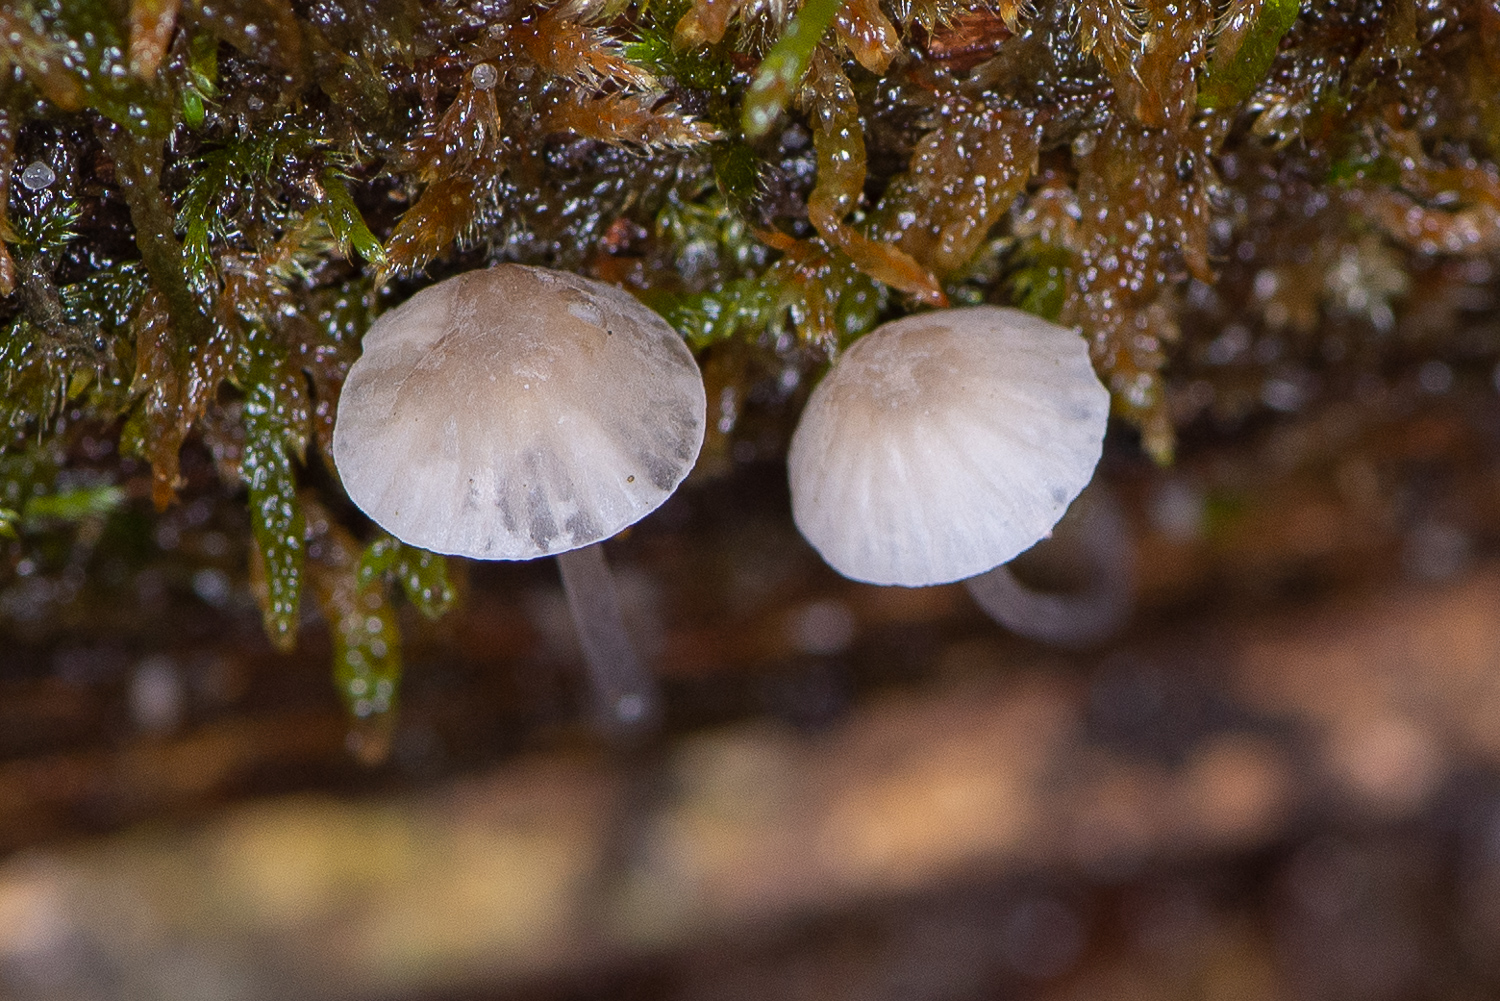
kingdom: Fungi
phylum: Basidiomycota
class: Agaricomycetes
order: Agaricales
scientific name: Agaricales
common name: champignonordenen
